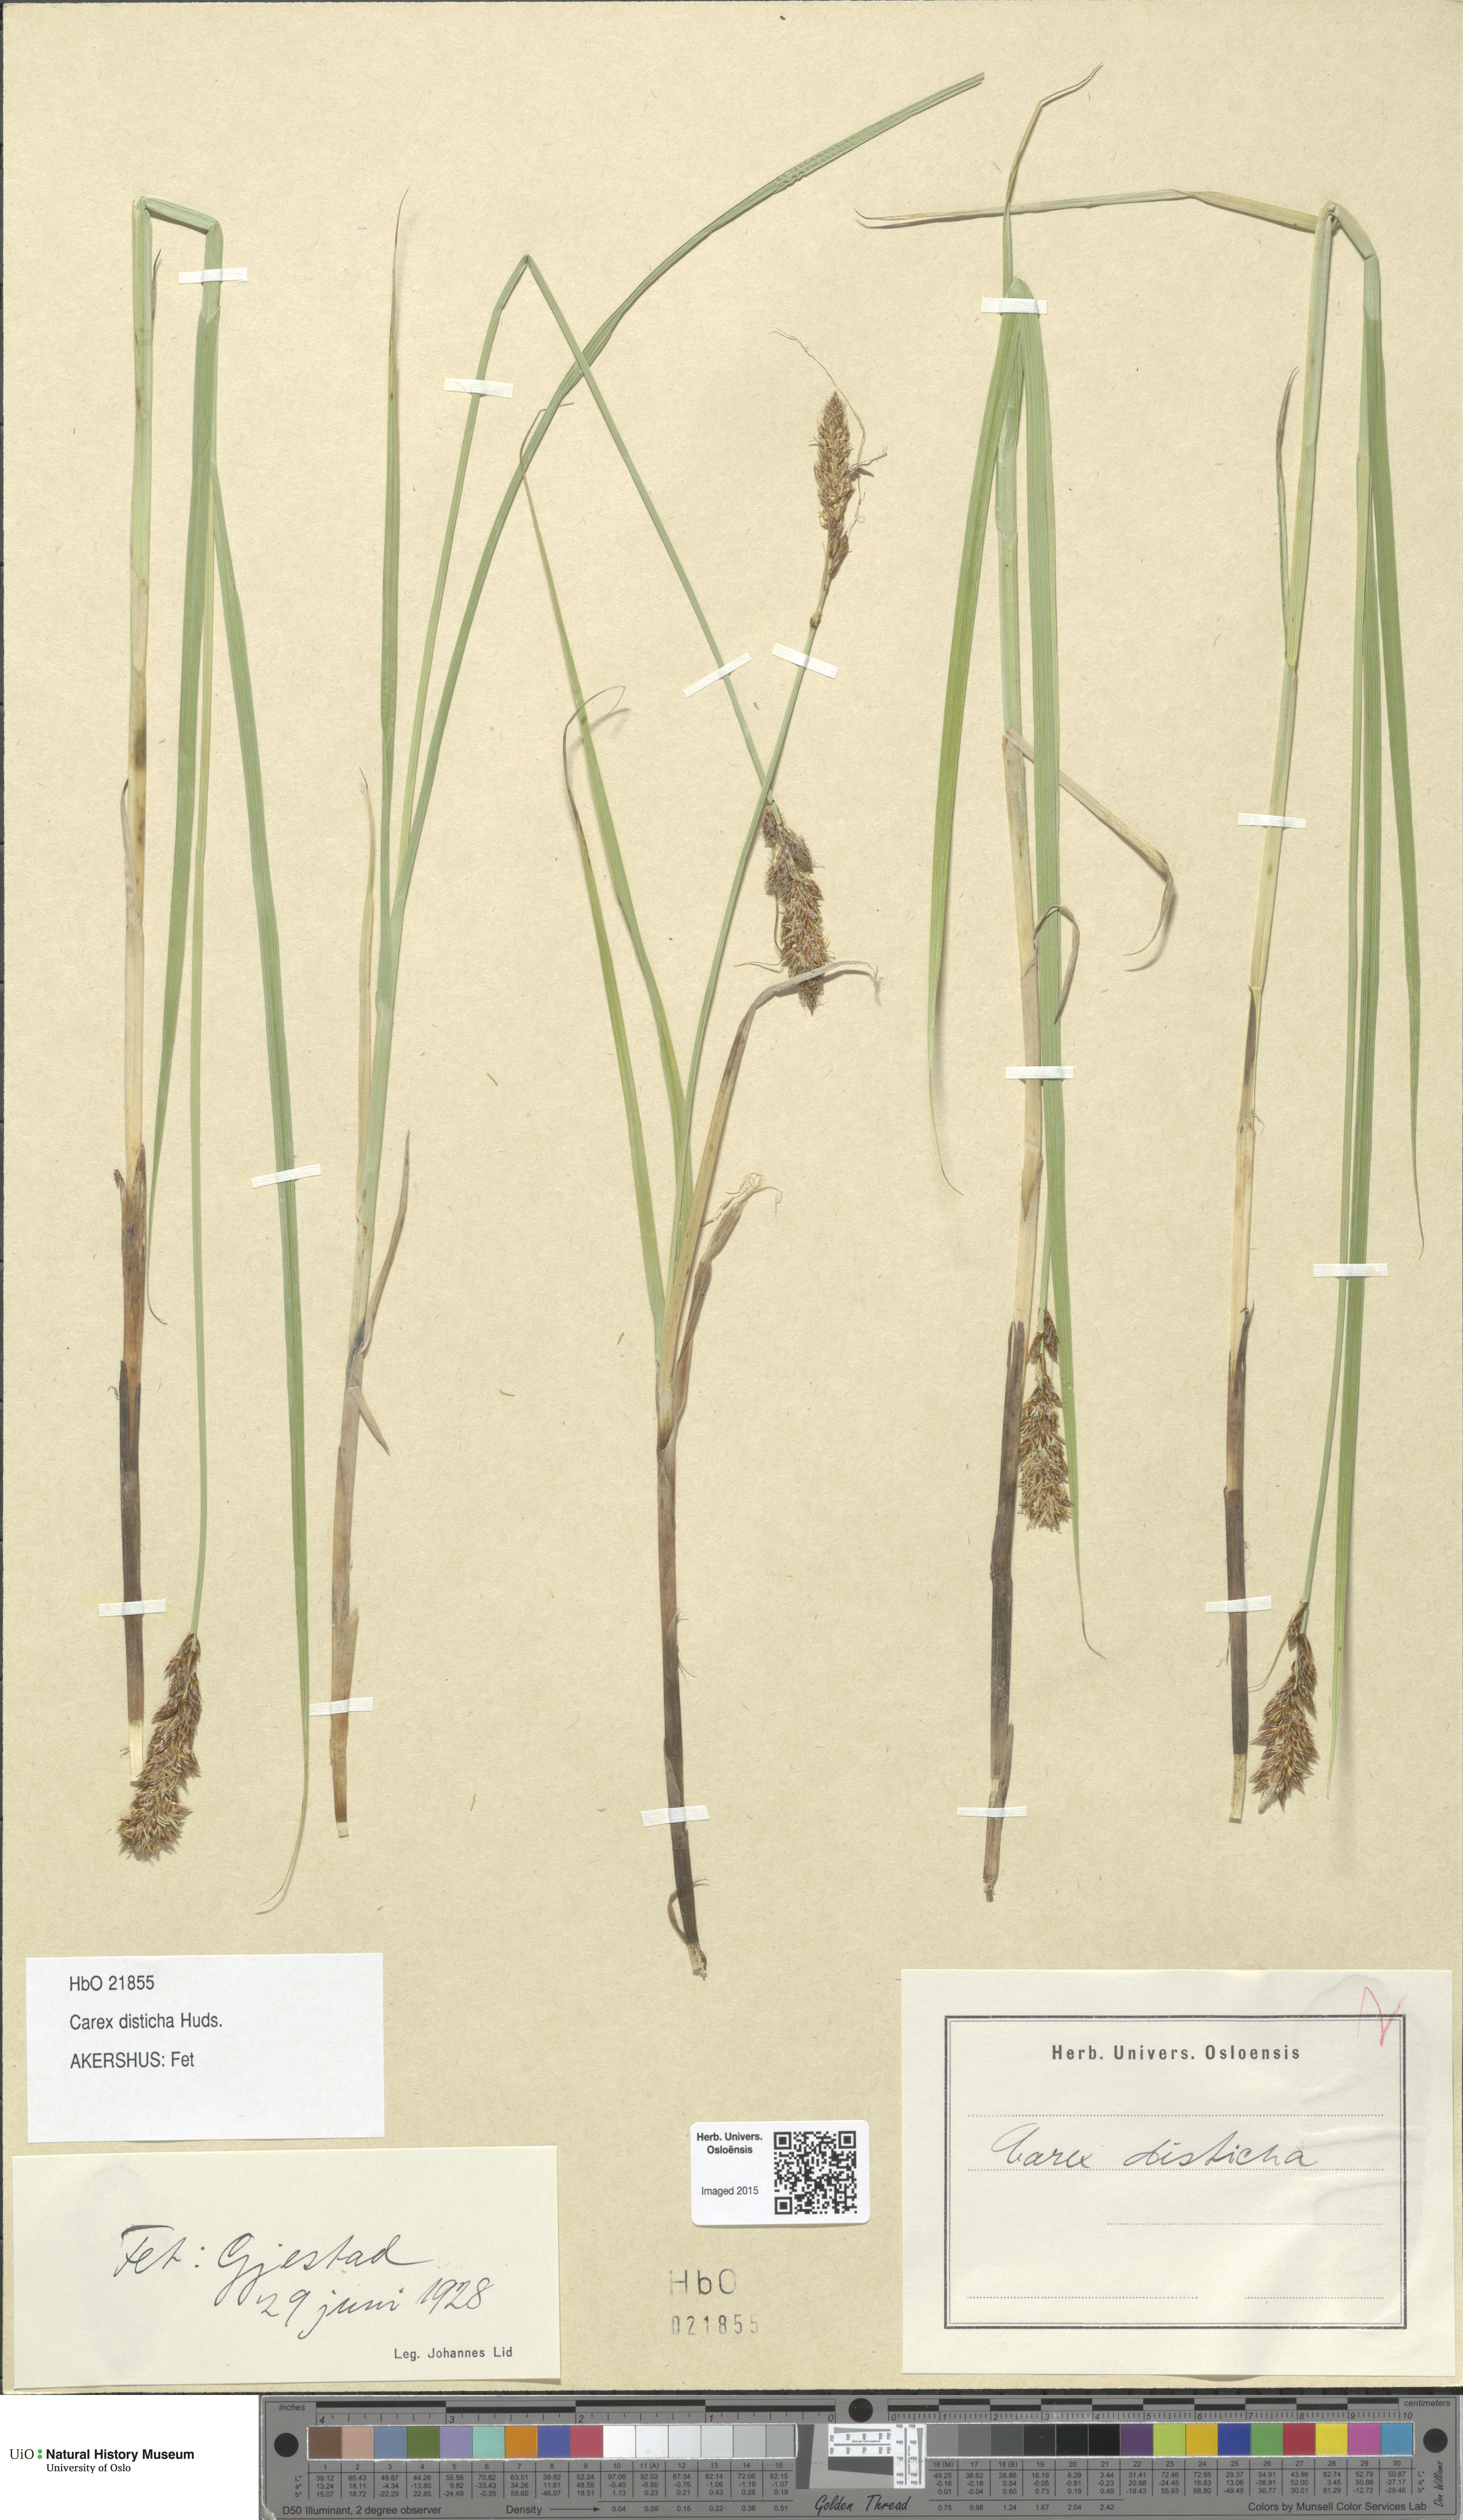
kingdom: Plantae
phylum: Tracheophyta
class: Liliopsida
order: Poales
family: Cyperaceae
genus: Carex
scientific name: Carex disticha
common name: Brown sedge
